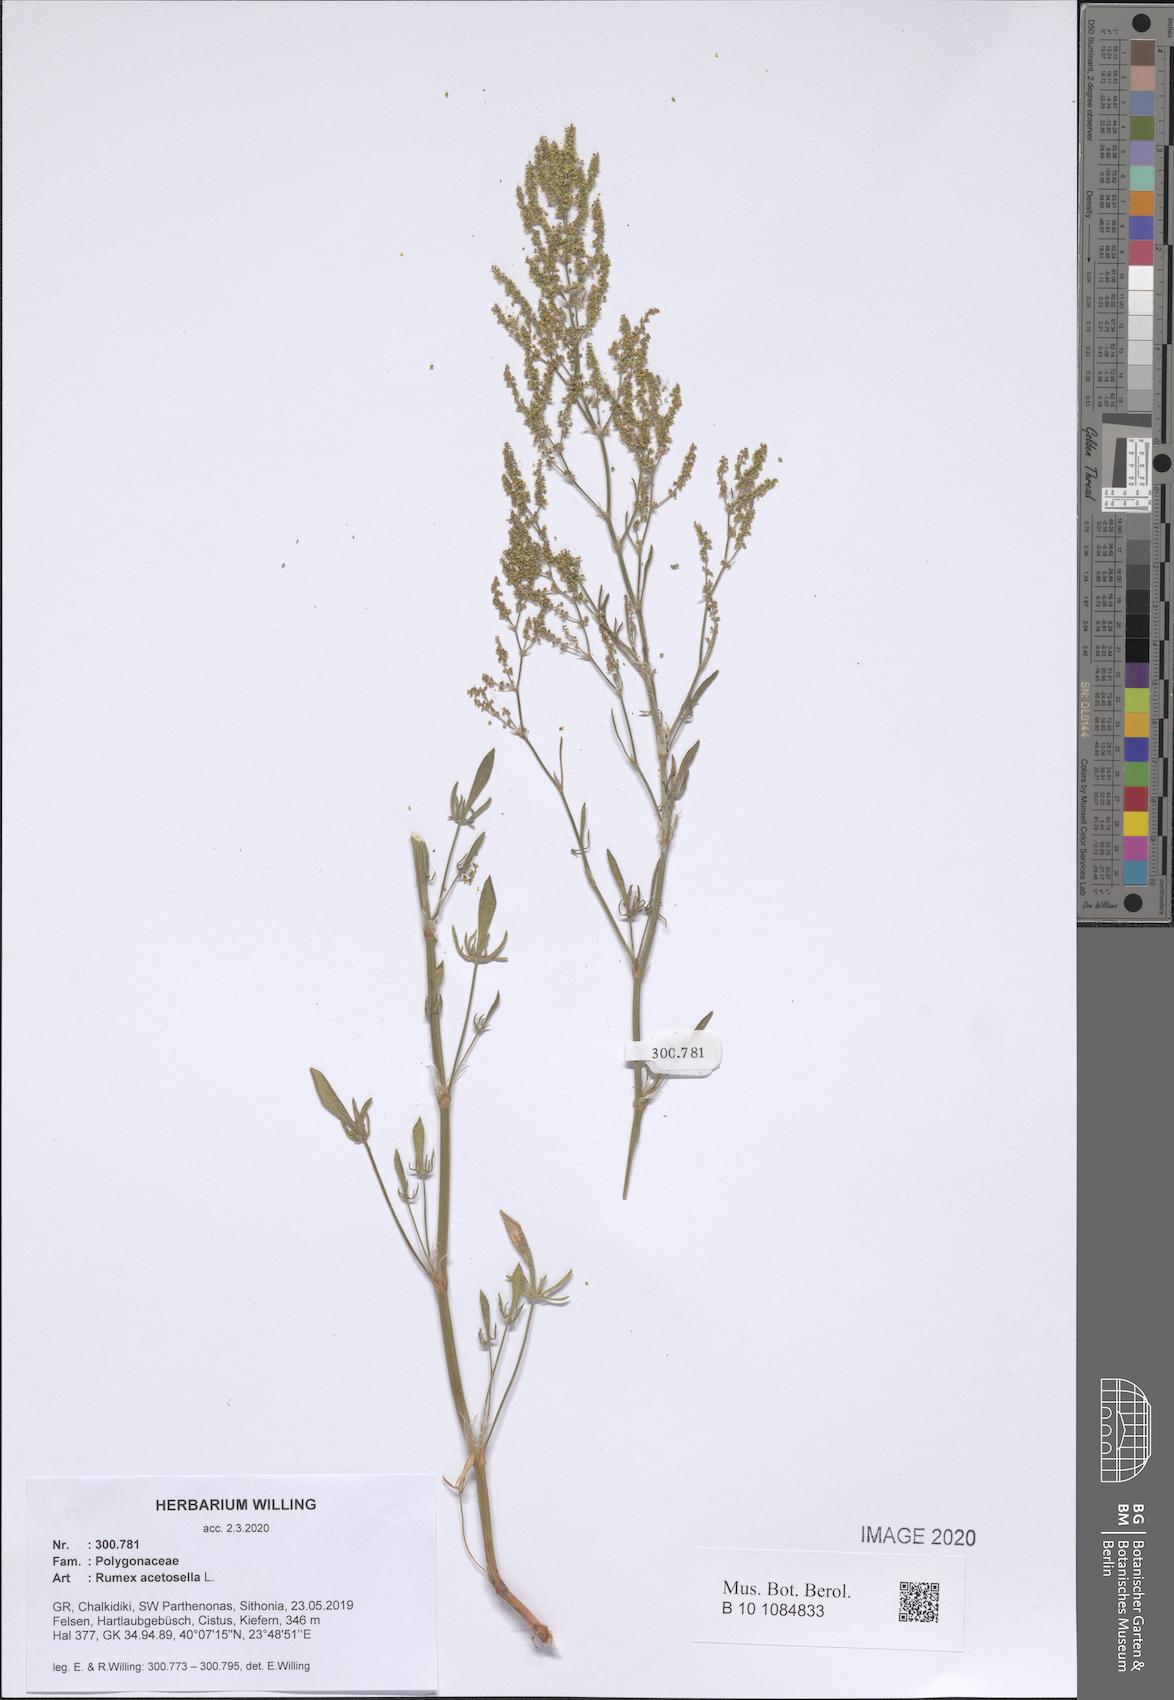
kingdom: Plantae
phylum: Tracheophyta
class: Magnoliopsida
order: Caryophyllales
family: Polygonaceae
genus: Rumex
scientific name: Rumex acetosella
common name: Common sheep sorrel
